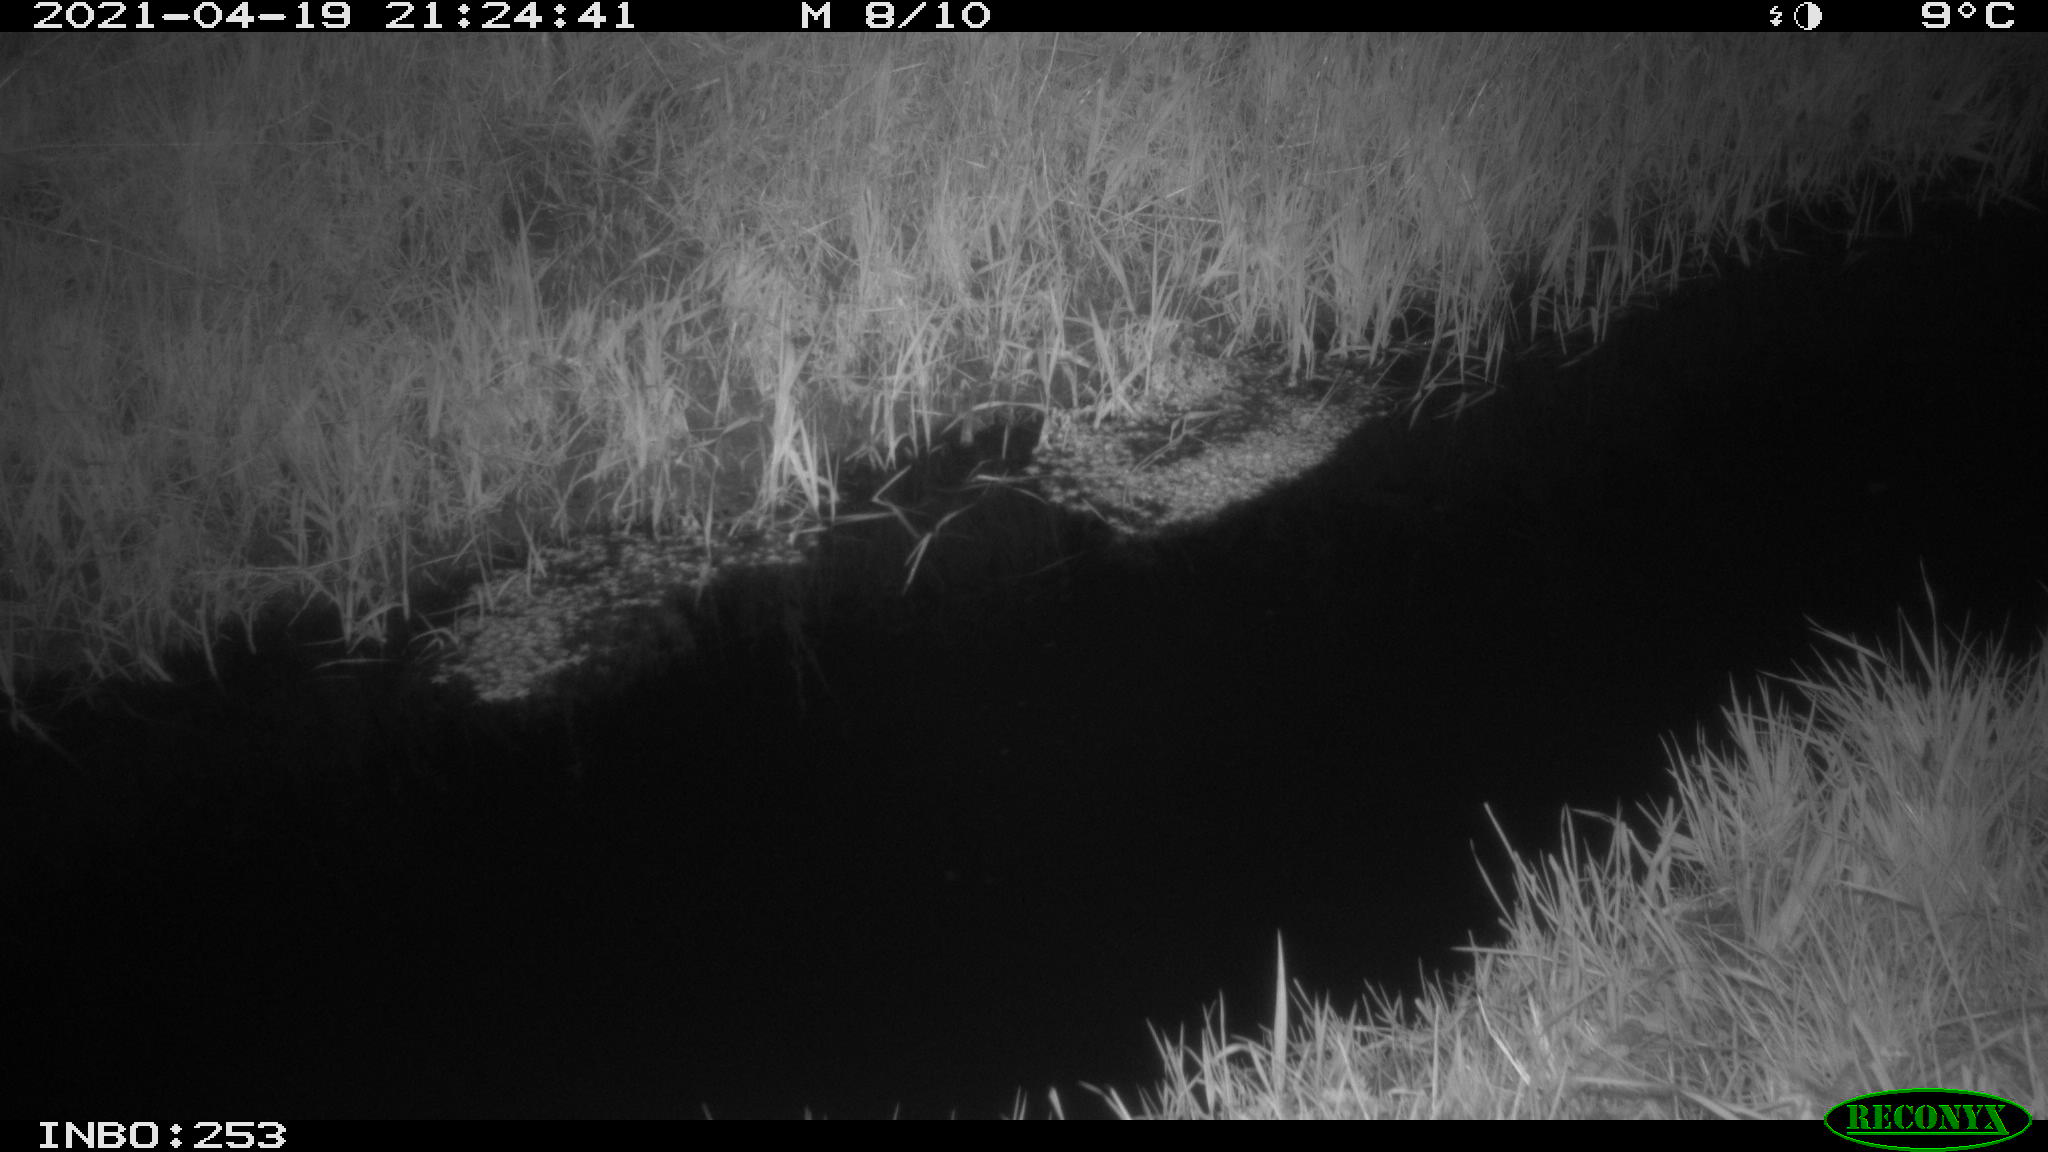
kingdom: Animalia
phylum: Chordata
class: Aves
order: Anseriformes
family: Anatidae
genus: Anas
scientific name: Anas platyrhynchos
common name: Mallard
